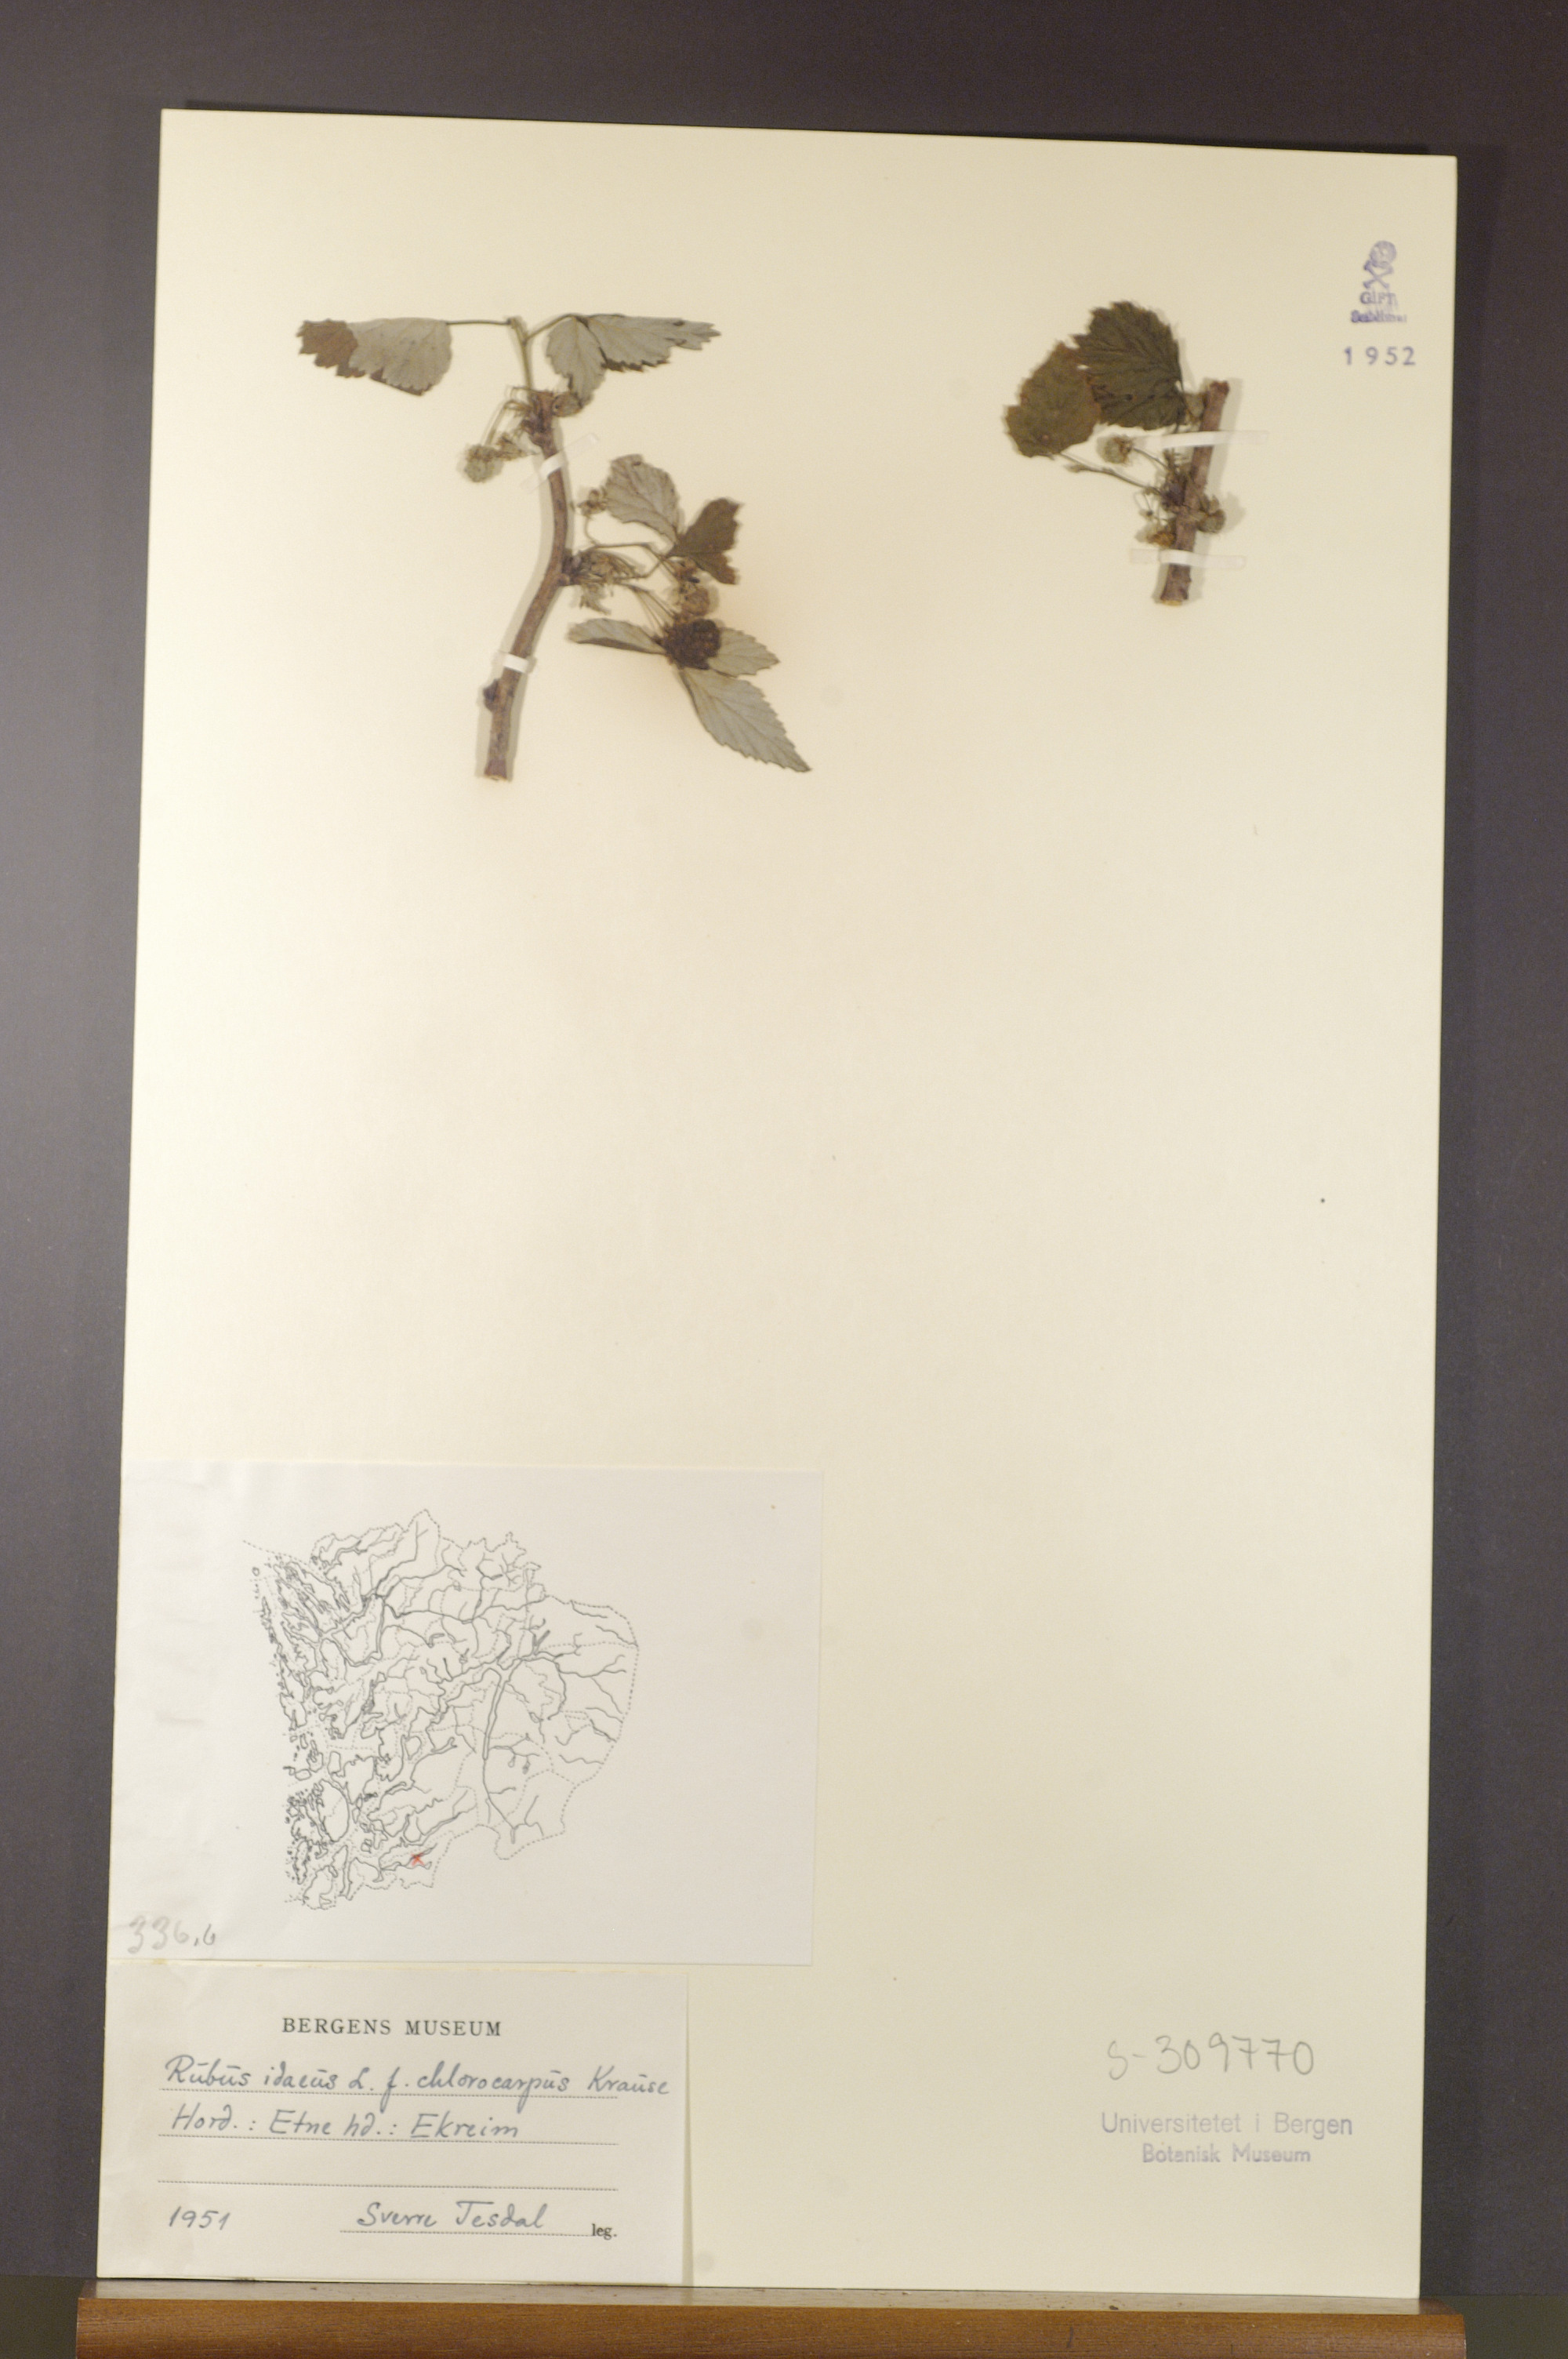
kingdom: Plantae
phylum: Tracheophyta
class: Magnoliopsida
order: Rosales
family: Rosaceae
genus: Rubus
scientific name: Rubus idaeus
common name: Raspberry
